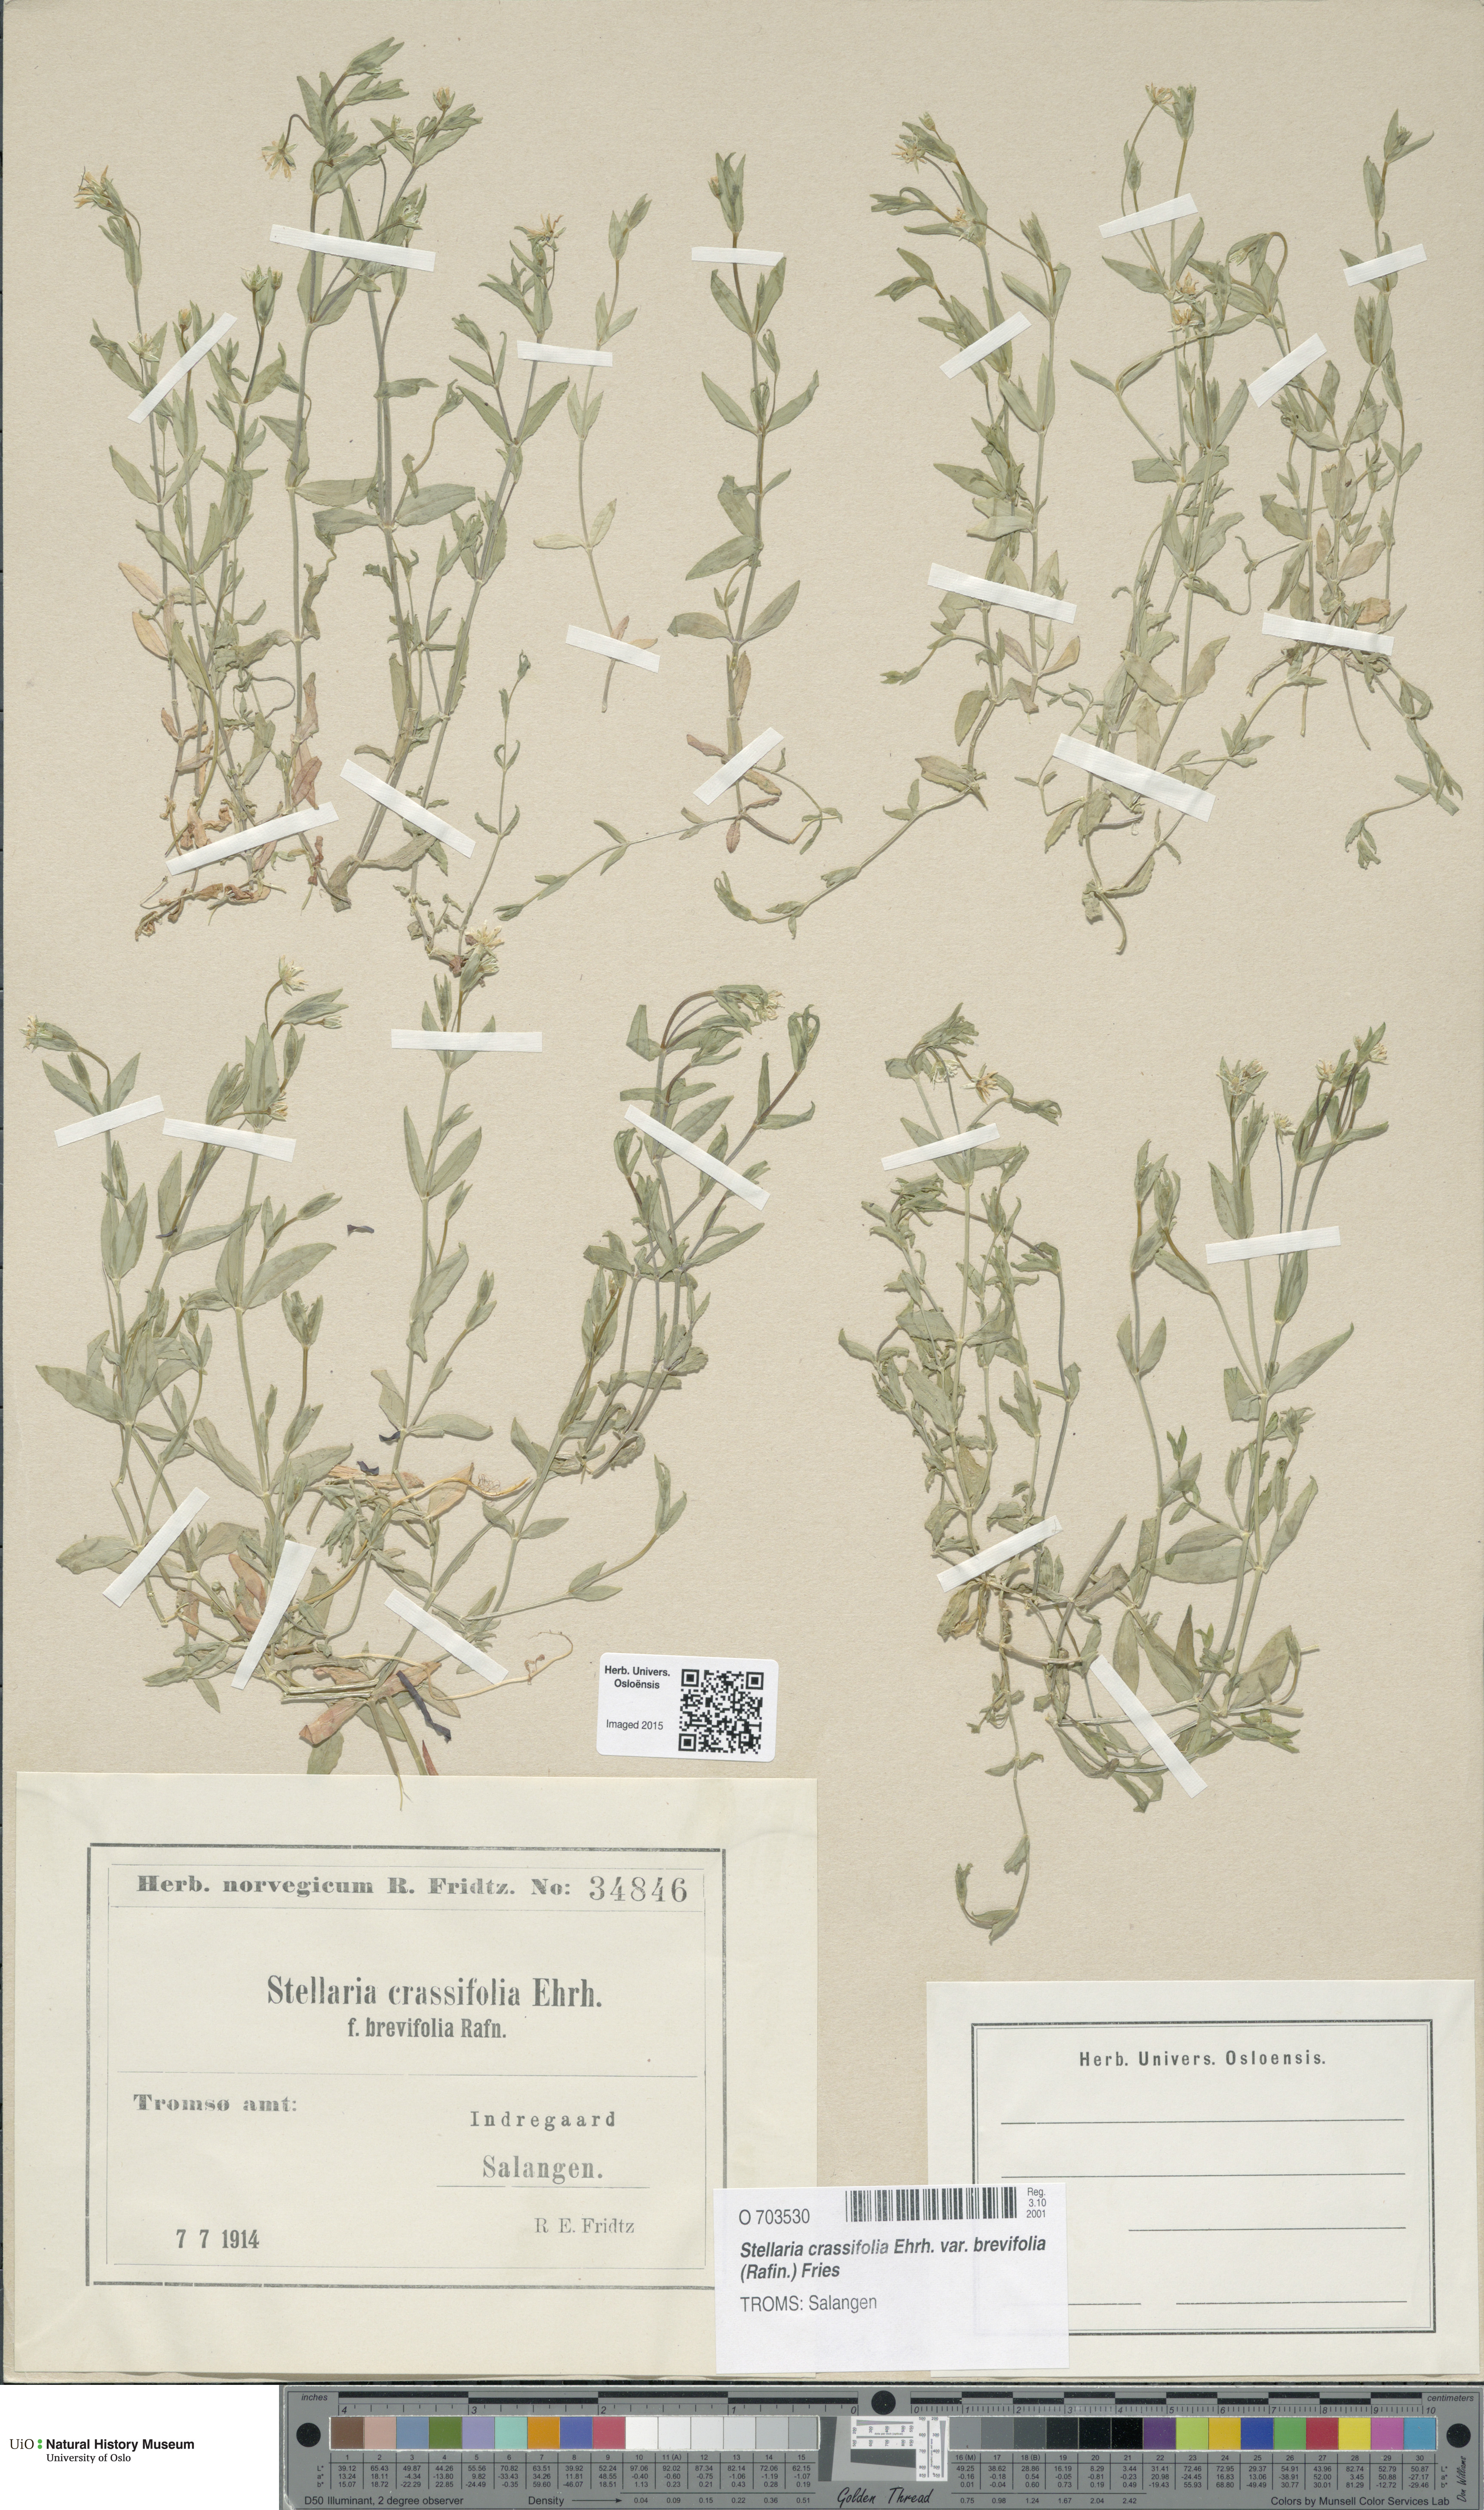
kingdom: Plantae
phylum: Tracheophyta
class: Magnoliopsida
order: Caryophyllales
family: Caryophyllaceae
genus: Stellaria
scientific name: Stellaria crassifolia
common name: Fleshy starwort
